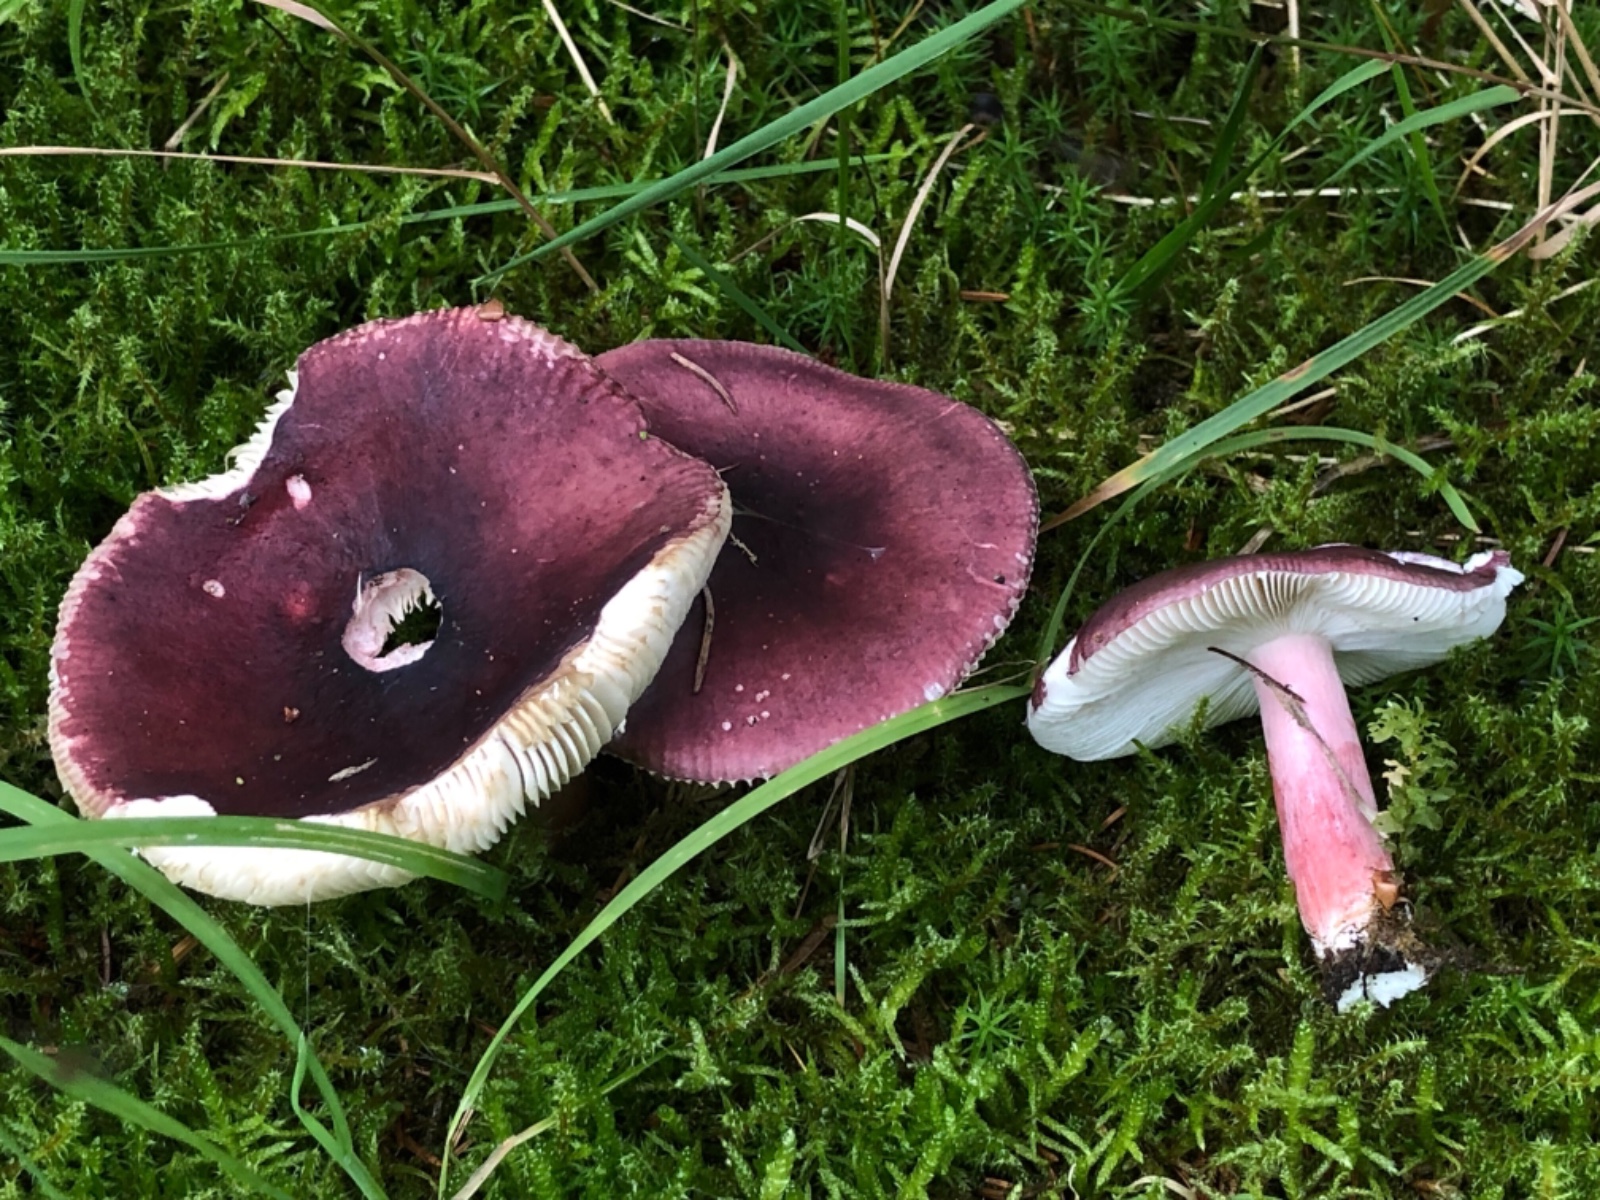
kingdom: Fungi
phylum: Basidiomycota
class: Agaricomycetes
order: Russulales
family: Russulaceae
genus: Russula
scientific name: Russula queletii
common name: Quélets skørhat
